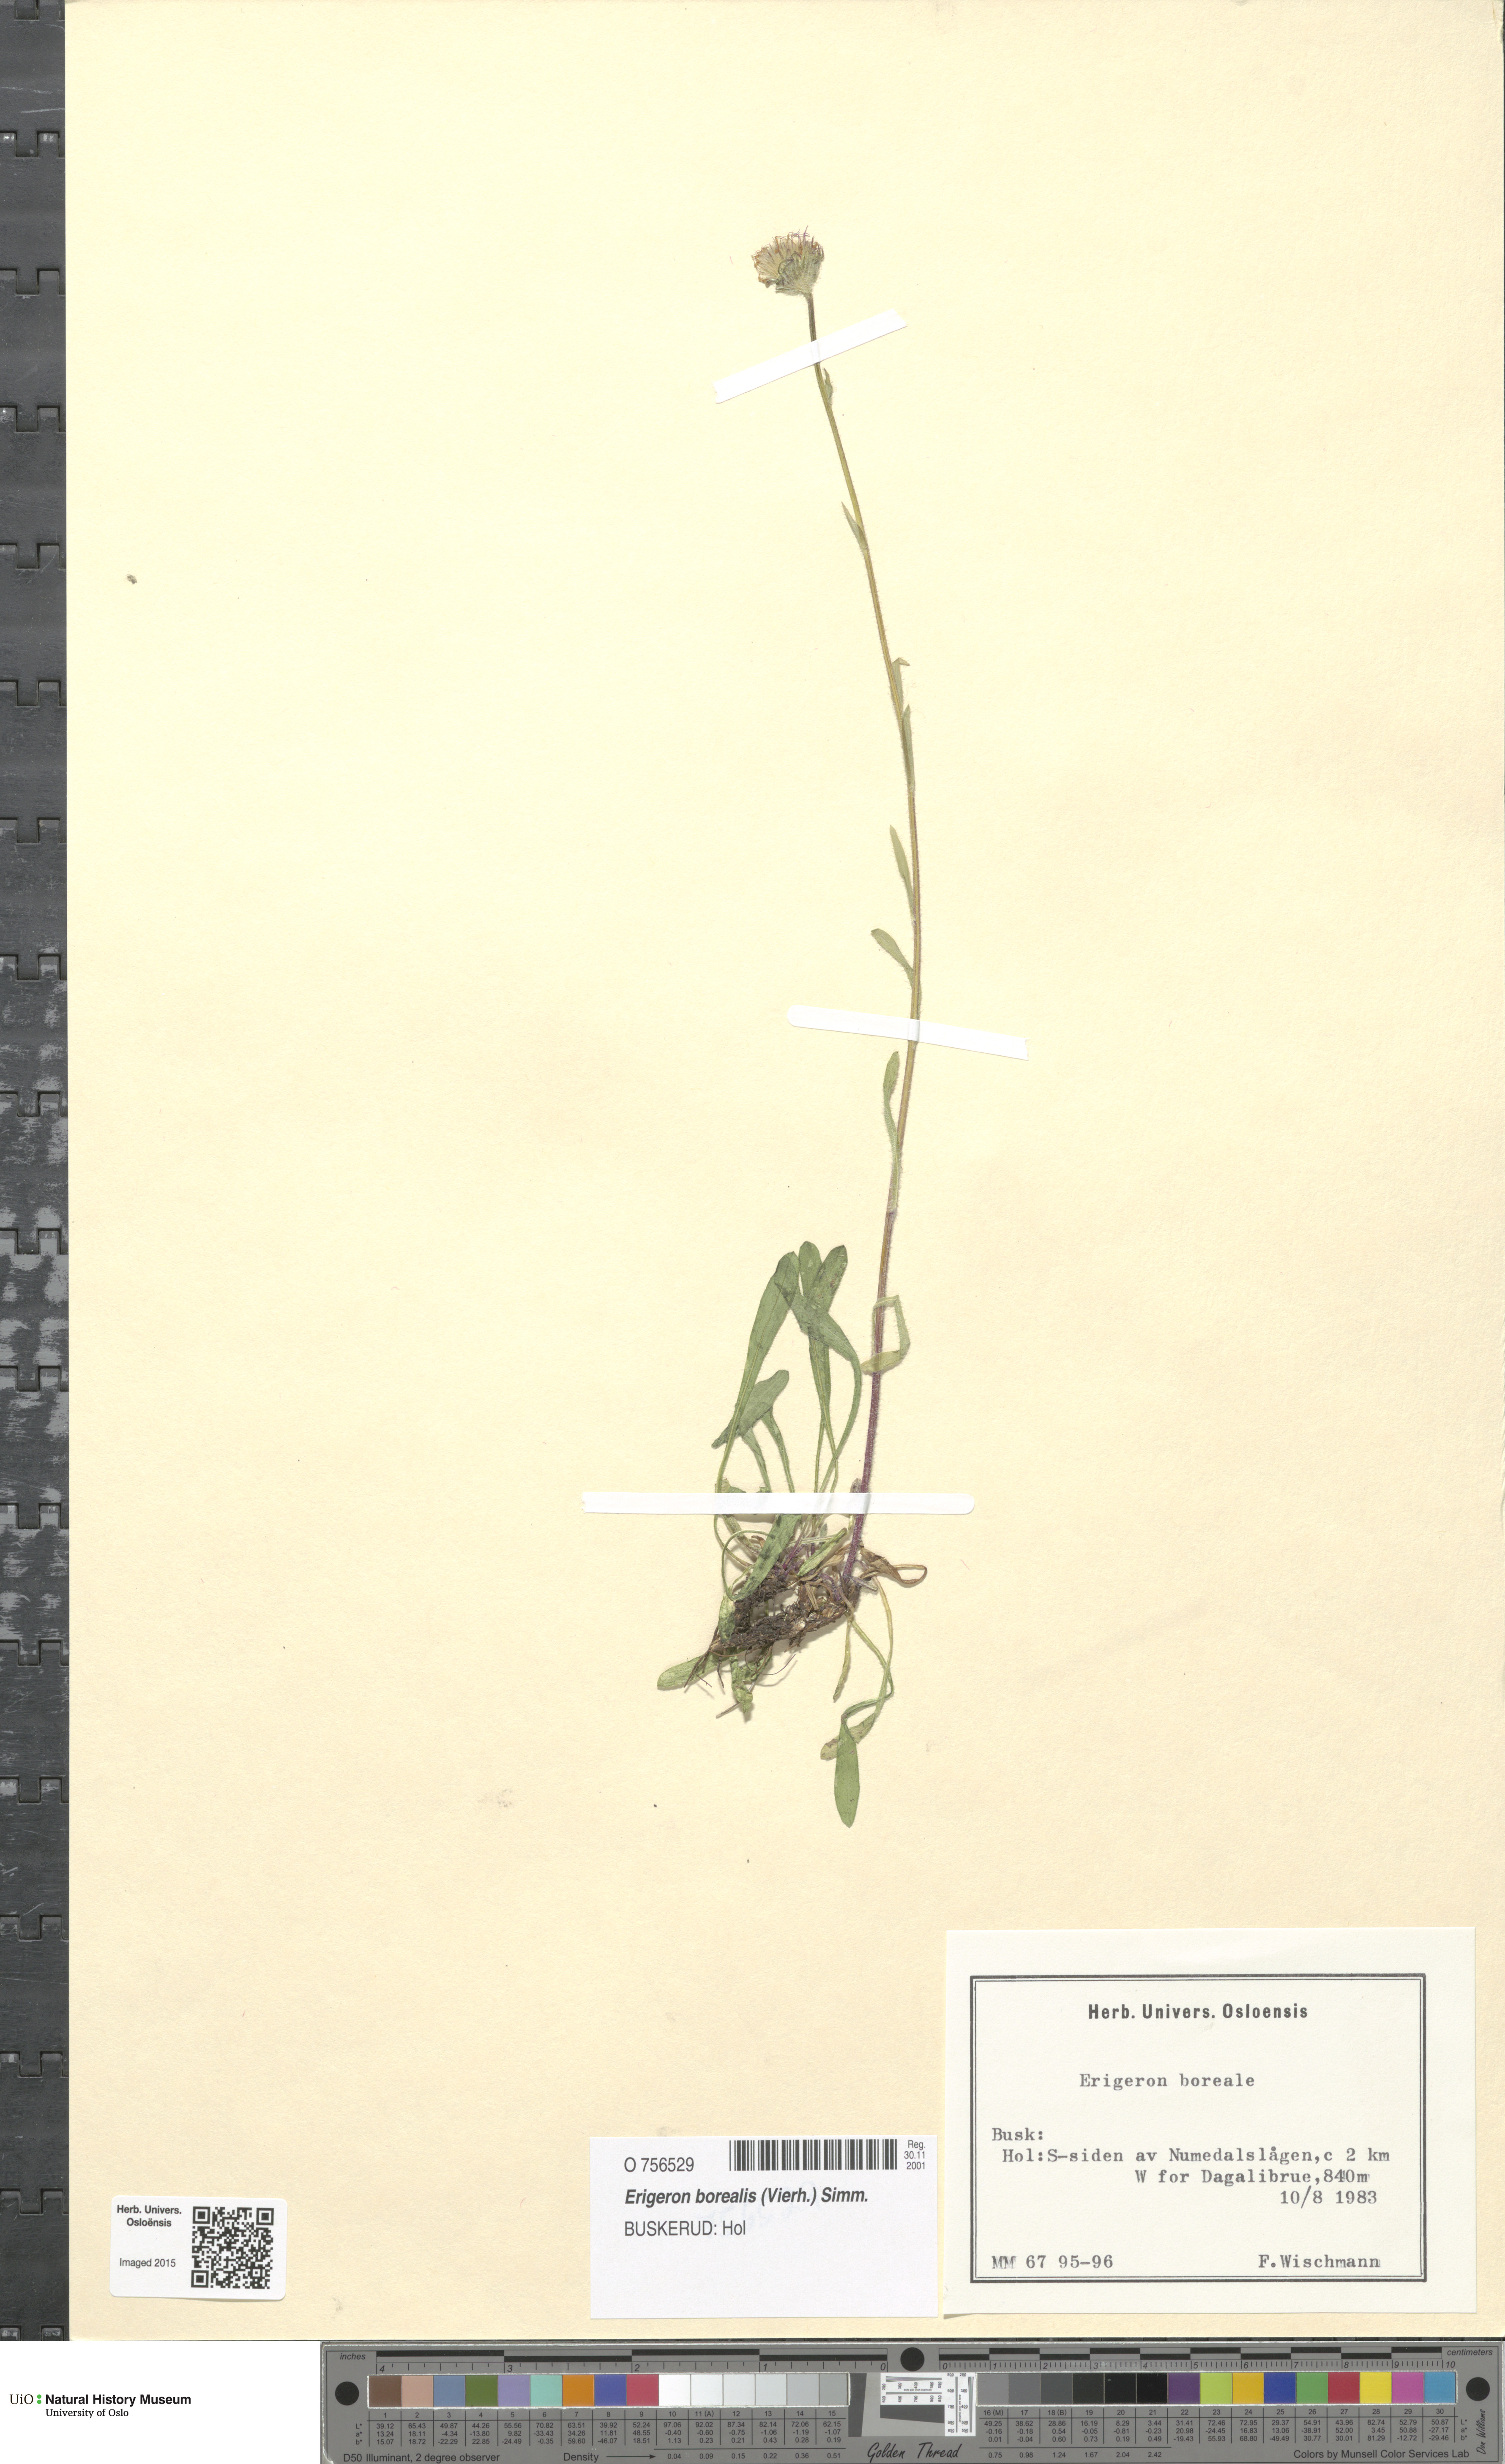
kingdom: Plantae
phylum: Tracheophyta
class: Magnoliopsida
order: Asterales
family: Asteraceae
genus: Erigeron
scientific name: Erigeron borealis
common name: Alpine fleabane
